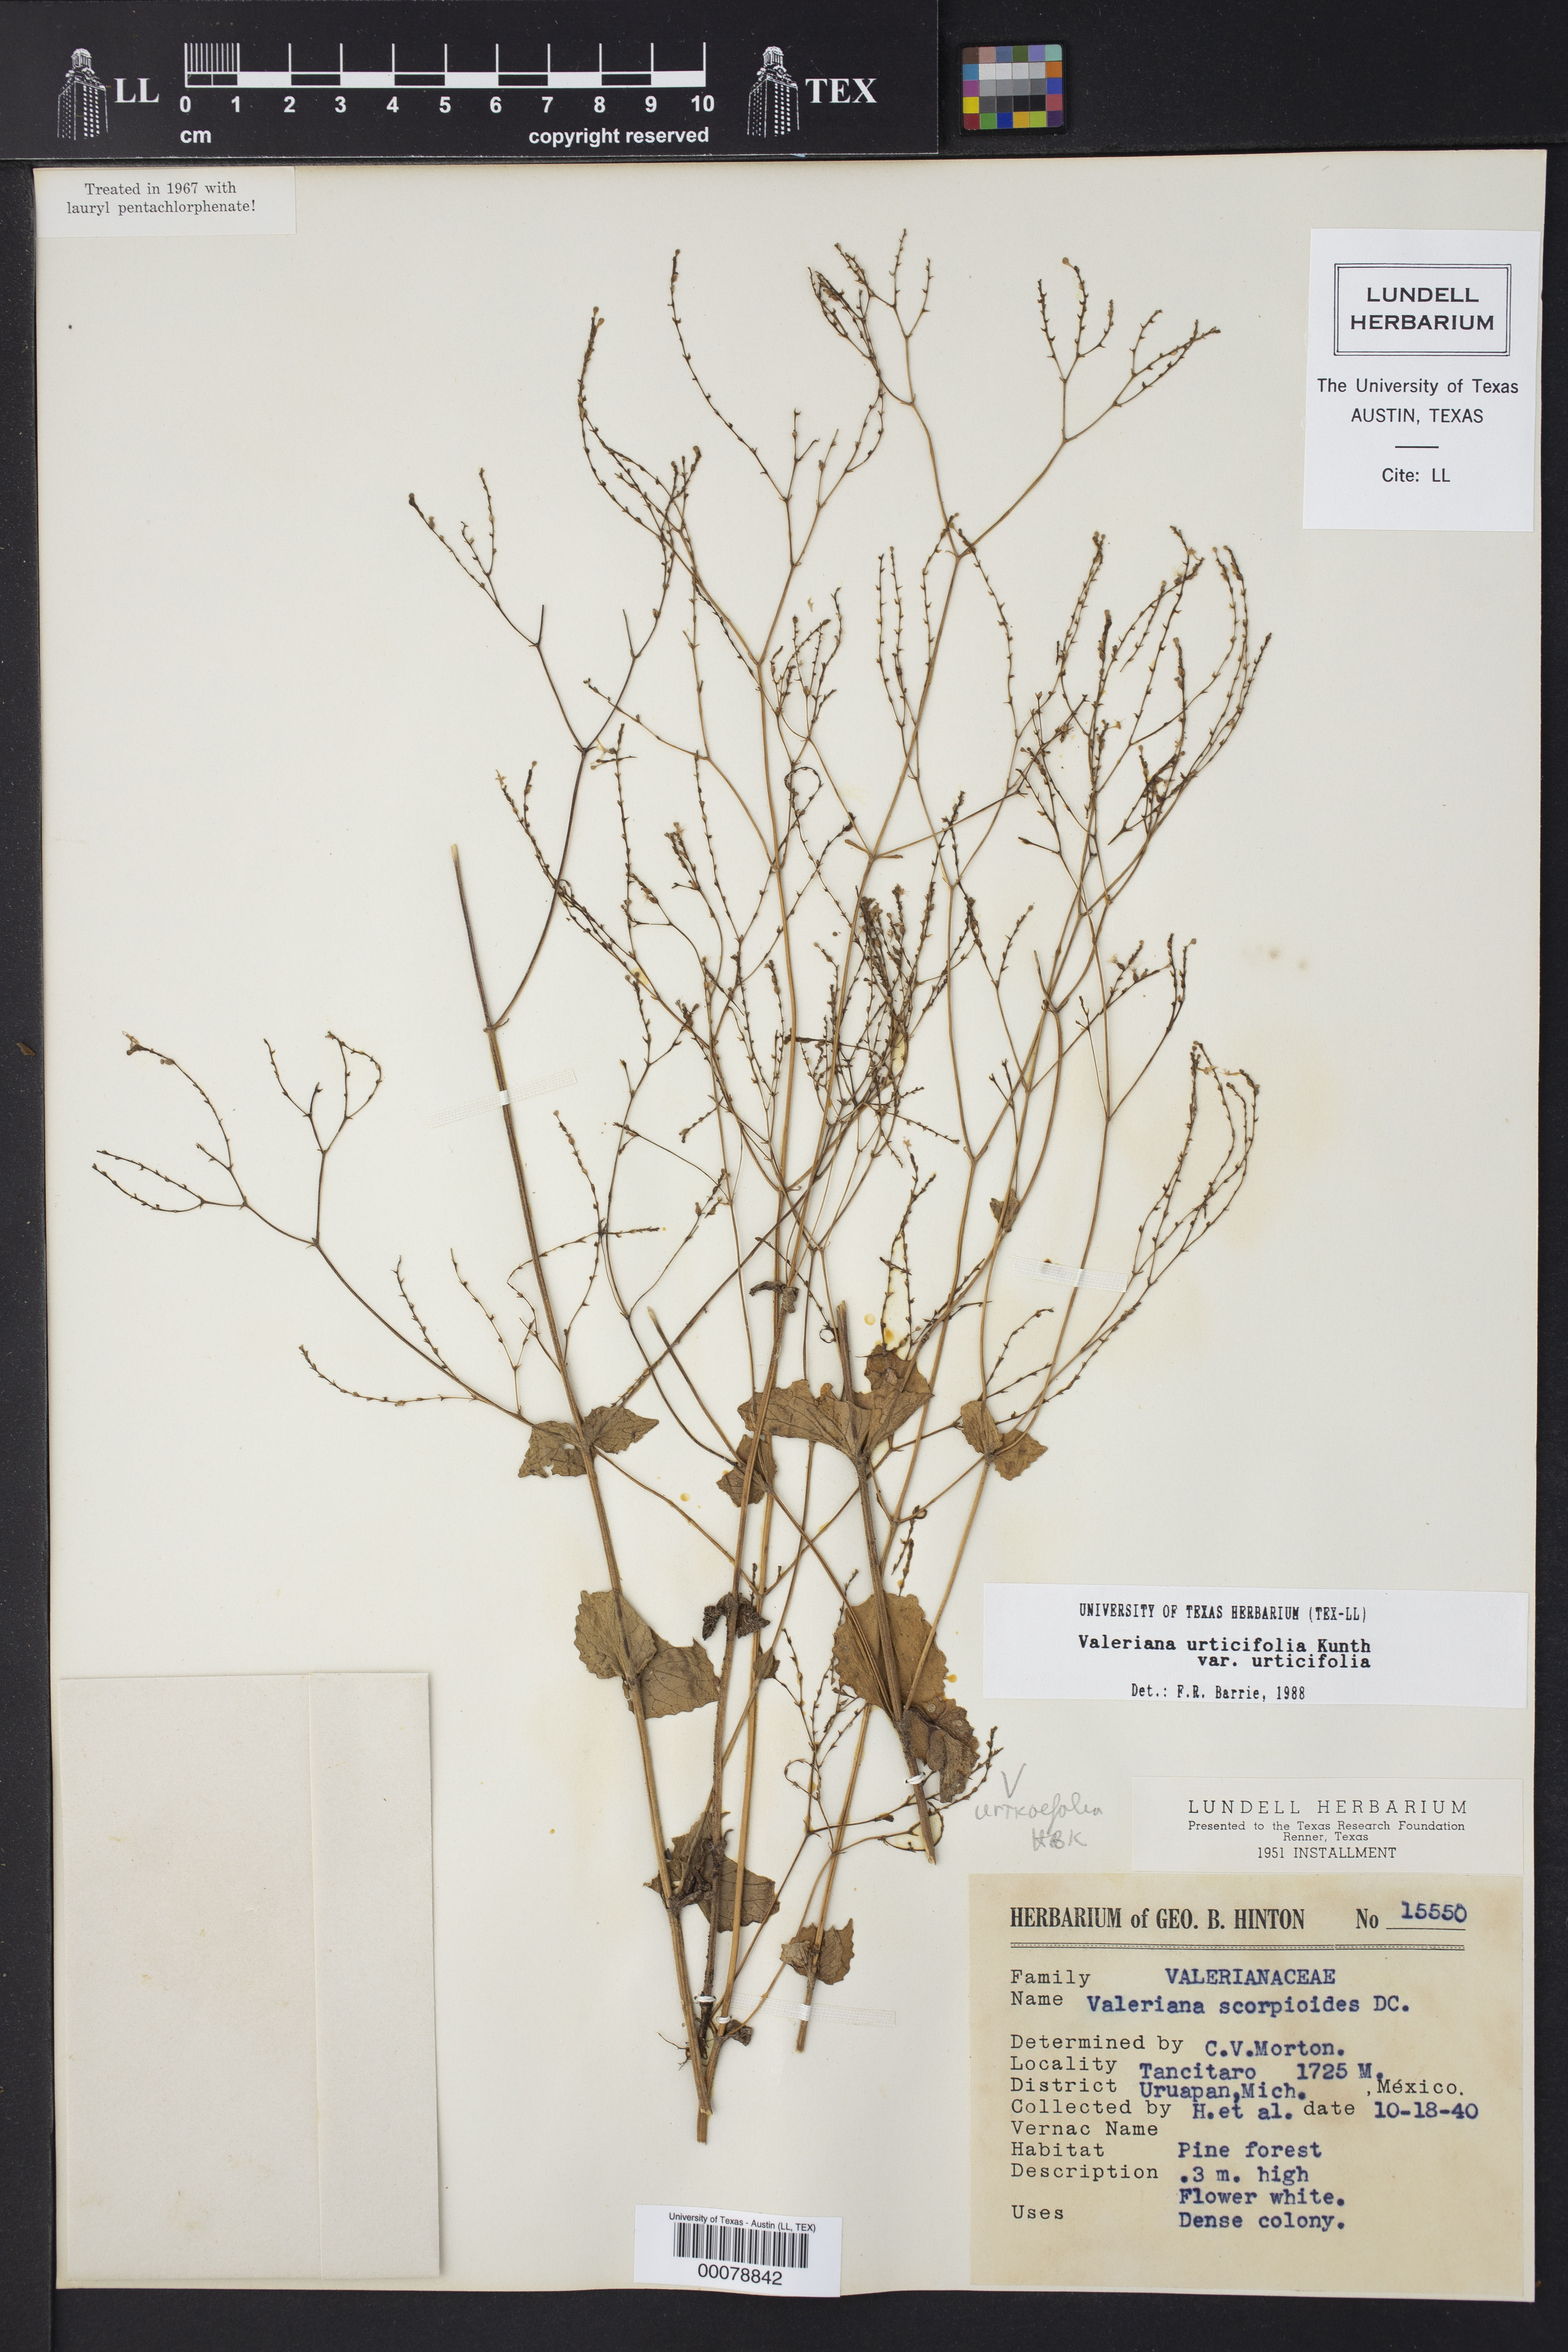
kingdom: Plantae
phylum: Tracheophyta
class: Magnoliopsida
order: Dipsacales
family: Caprifoliaceae
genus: Valeriana
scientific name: Valeriana urticifolia
